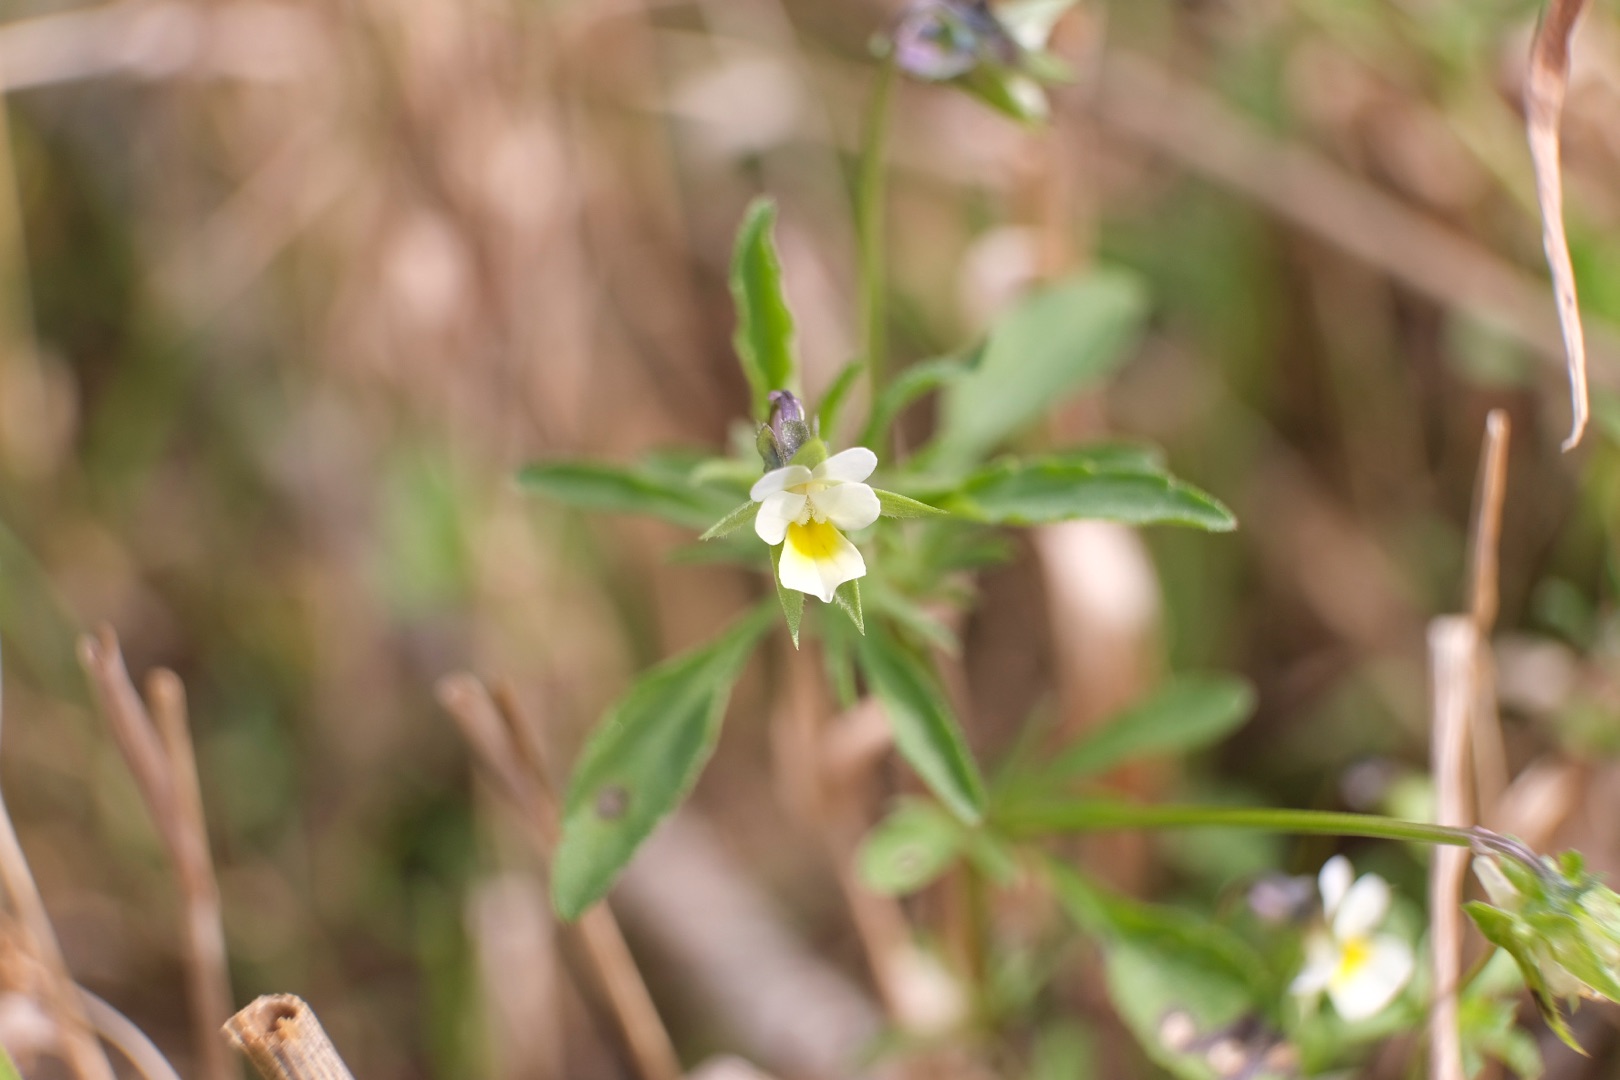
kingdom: Plantae
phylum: Tracheophyta
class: Magnoliopsida
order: Malpighiales
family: Violaceae
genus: Viola
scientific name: Viola arvensis
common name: Ager-stedmoderblomst
